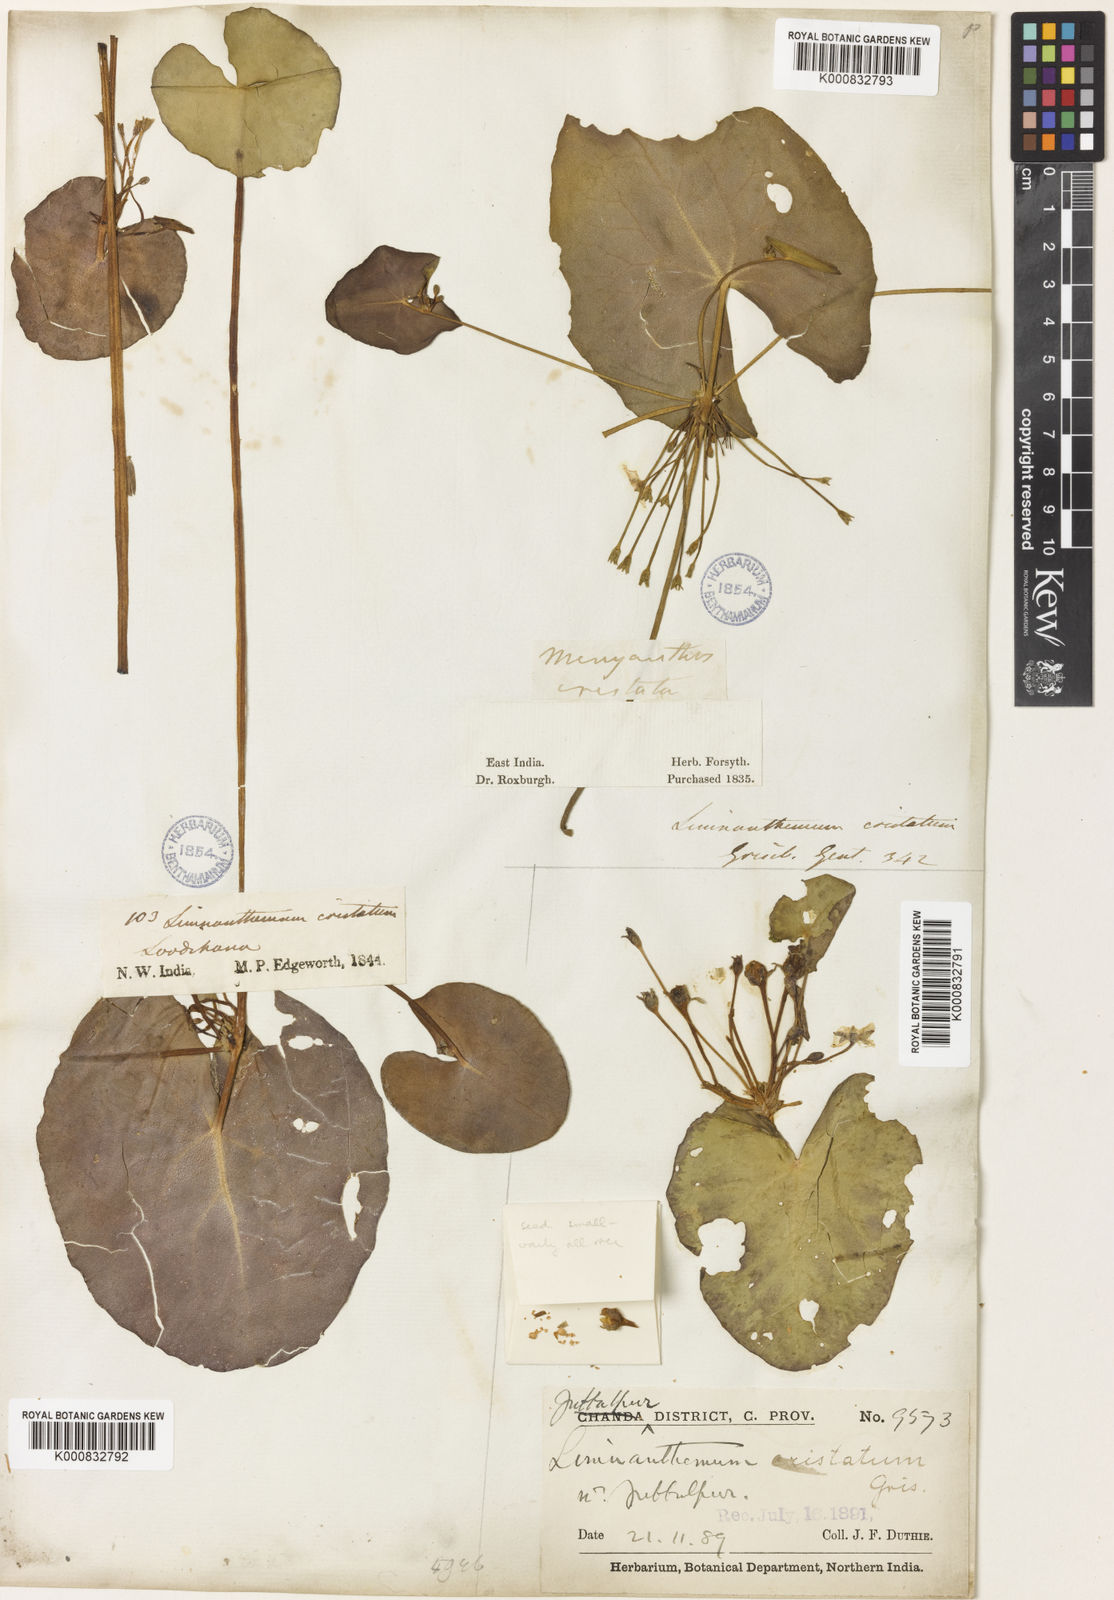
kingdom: Plantae
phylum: Tracheophyta
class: Magnoliopsida
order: Asterales
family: Menyanthaceae
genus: Nymphoides
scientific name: Nymphoides hydrophylla
